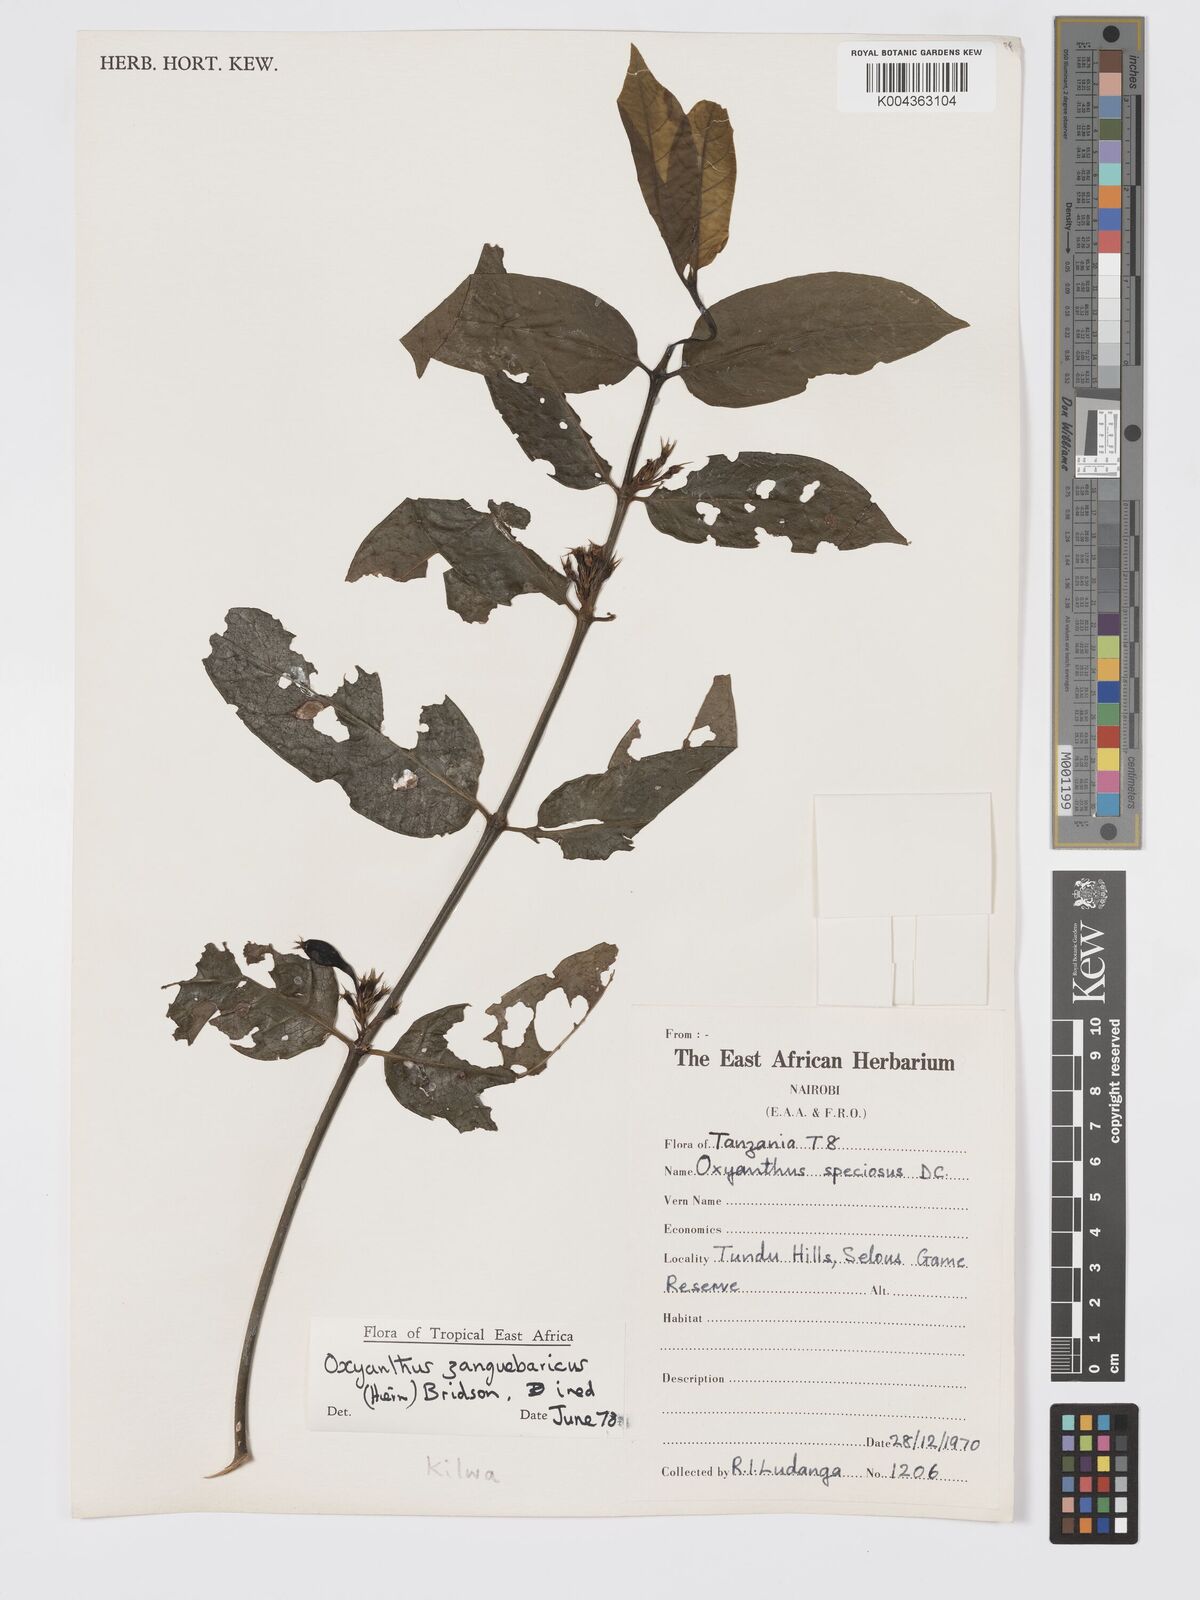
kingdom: Plantae
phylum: Tracheophyta
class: Magnoliopsida
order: Gentianales
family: Rubiaceae
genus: Oxyanthus
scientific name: Oxyanthus zanguebaricus
